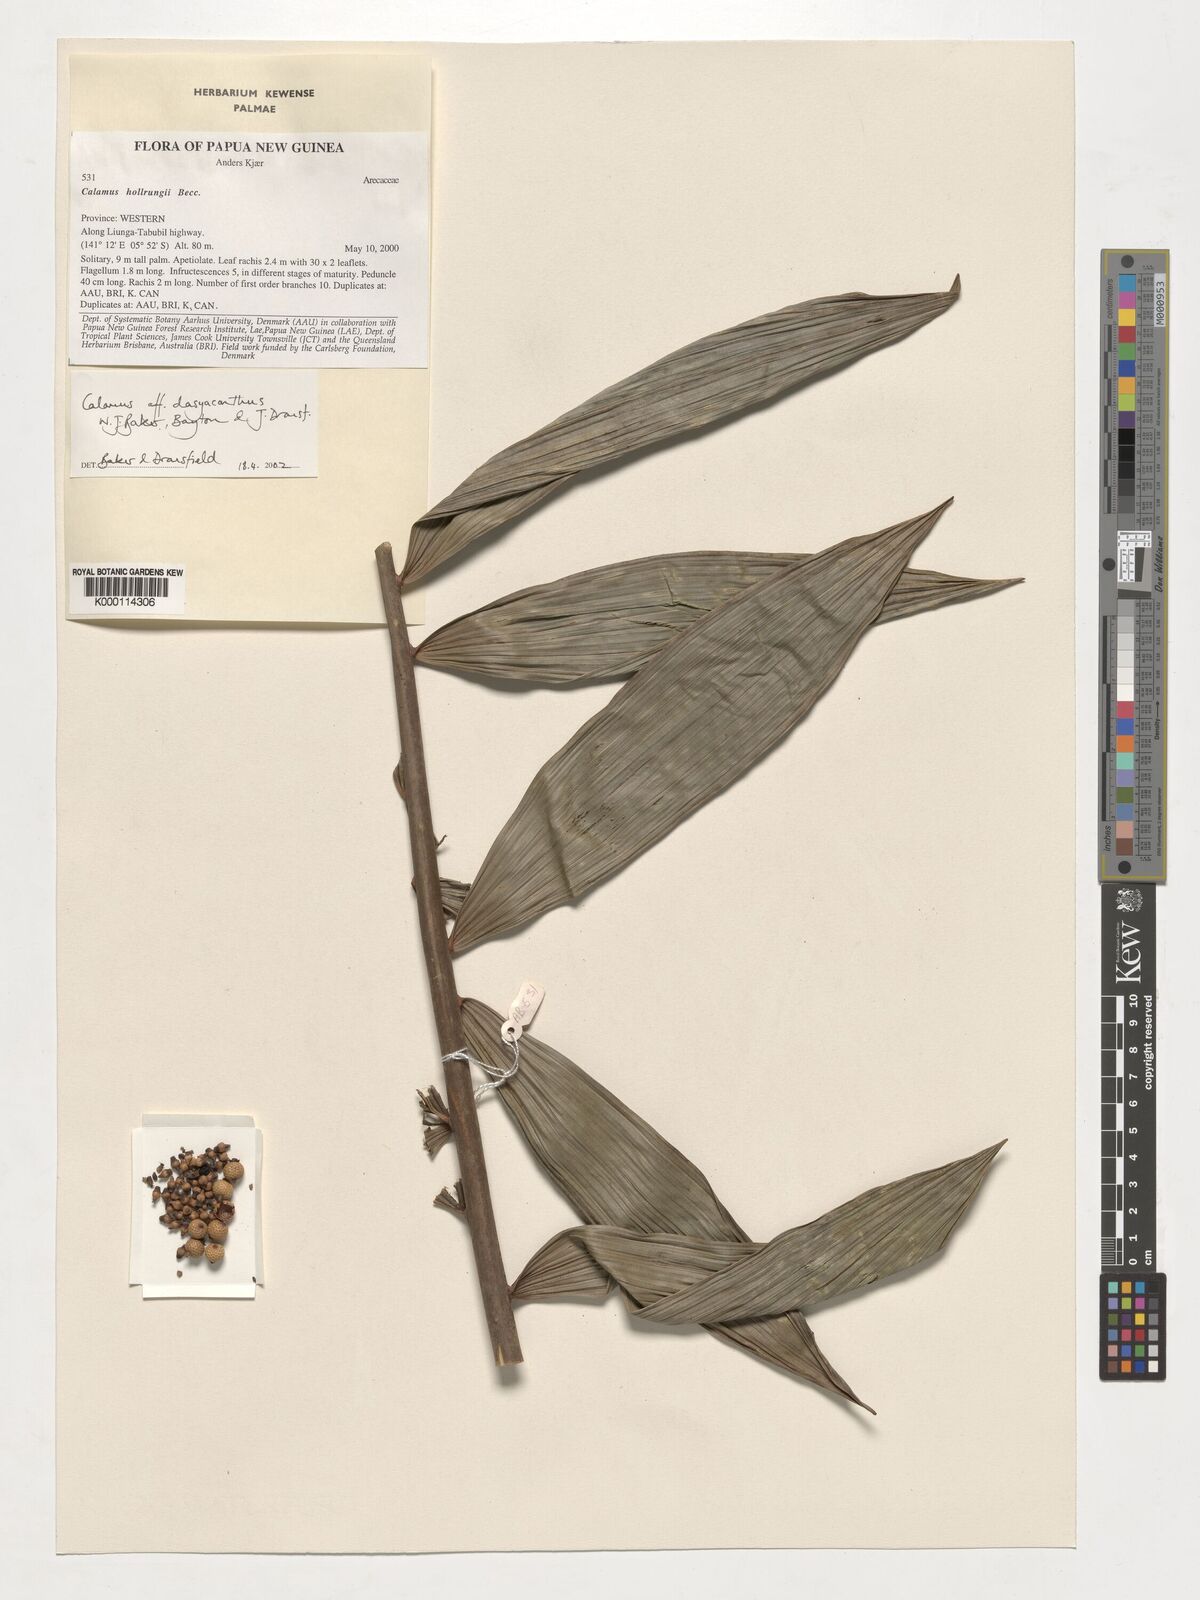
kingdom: Plantae
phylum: Tracheophyta
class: Liliopsida
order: Arecales
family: Arecaceae
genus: Calamus
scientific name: Calamus
